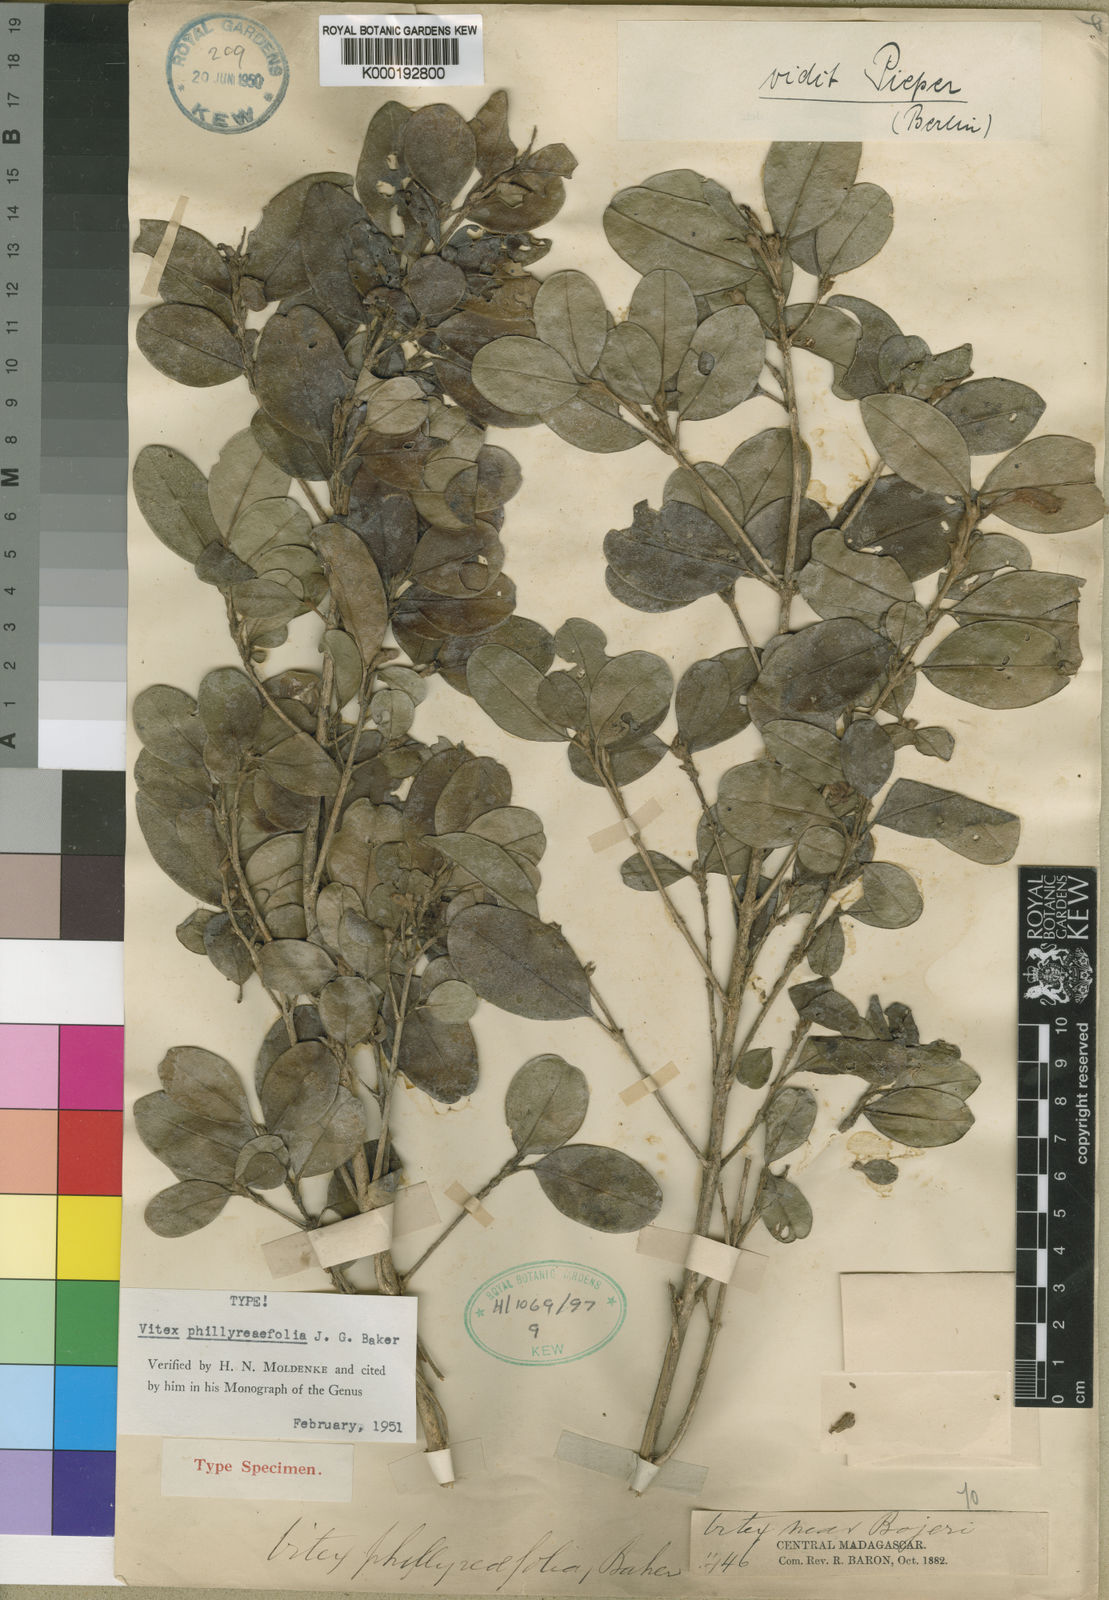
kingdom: Plantae
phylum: Tracheophyta
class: Magnoliopsida
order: Lamiales
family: Lamiaceae
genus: Vitex
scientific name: Vitex phillyreifolia
